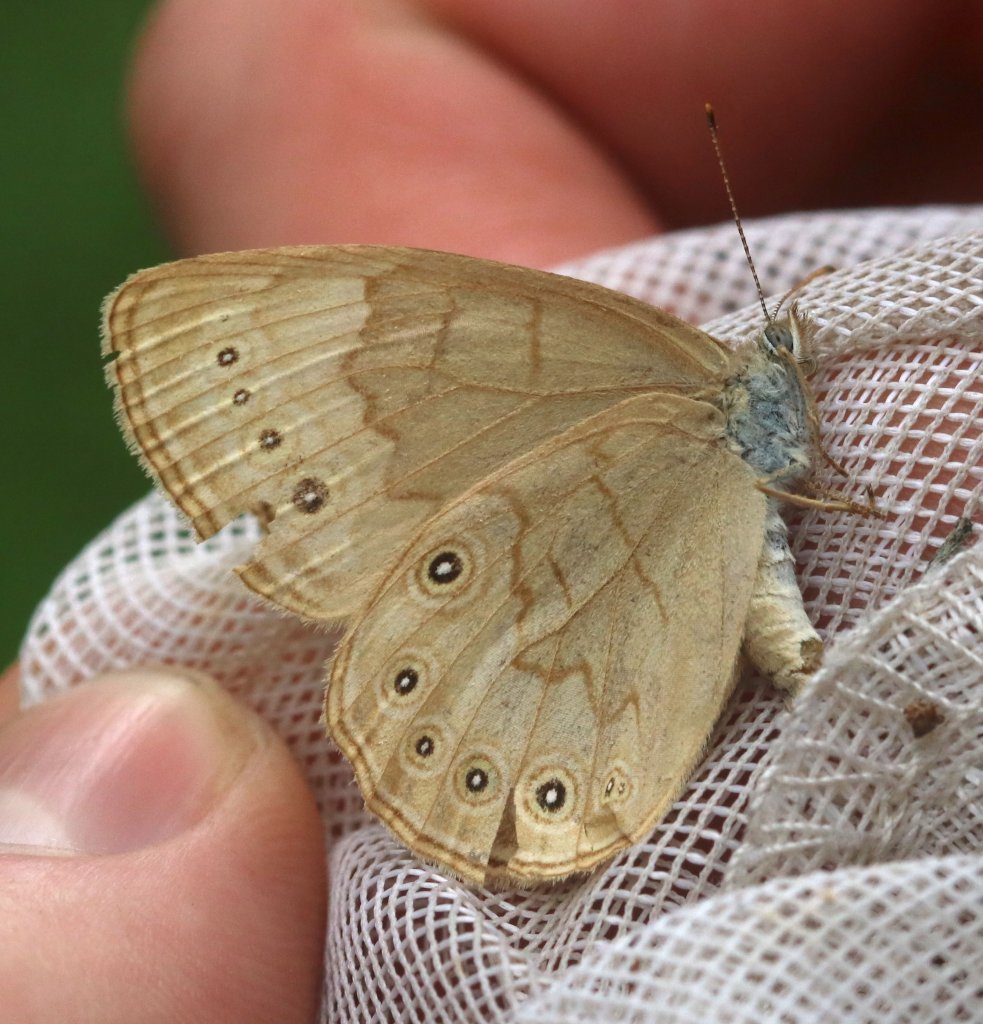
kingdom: Animalia
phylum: Arthropoda
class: Insecta
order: Lepidoptera
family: Nymphalidae
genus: Lethe
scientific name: Lethe eurydice
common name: Eyed Brown
